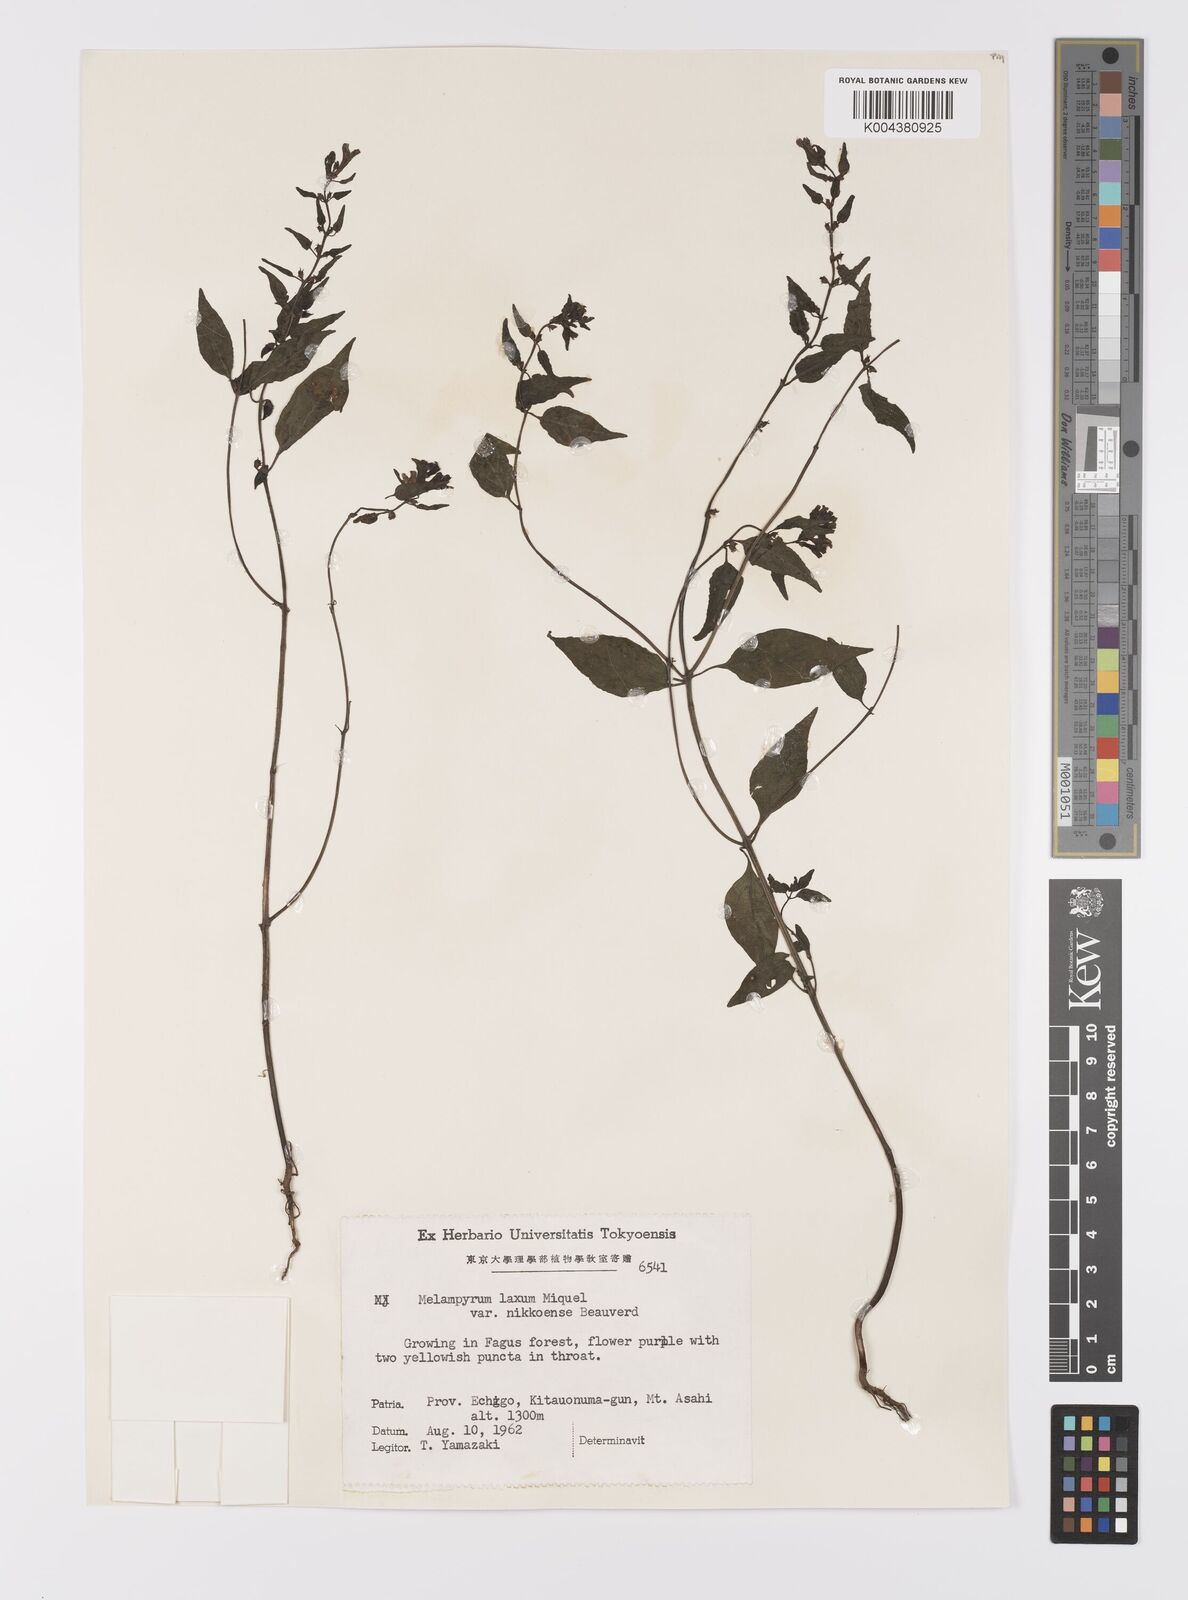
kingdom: Plantae
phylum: Tracheophyta
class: Magnoliopsida
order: Lamiales
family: Orobanchaceae
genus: Melampyrum
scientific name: Melampyrum laxum
